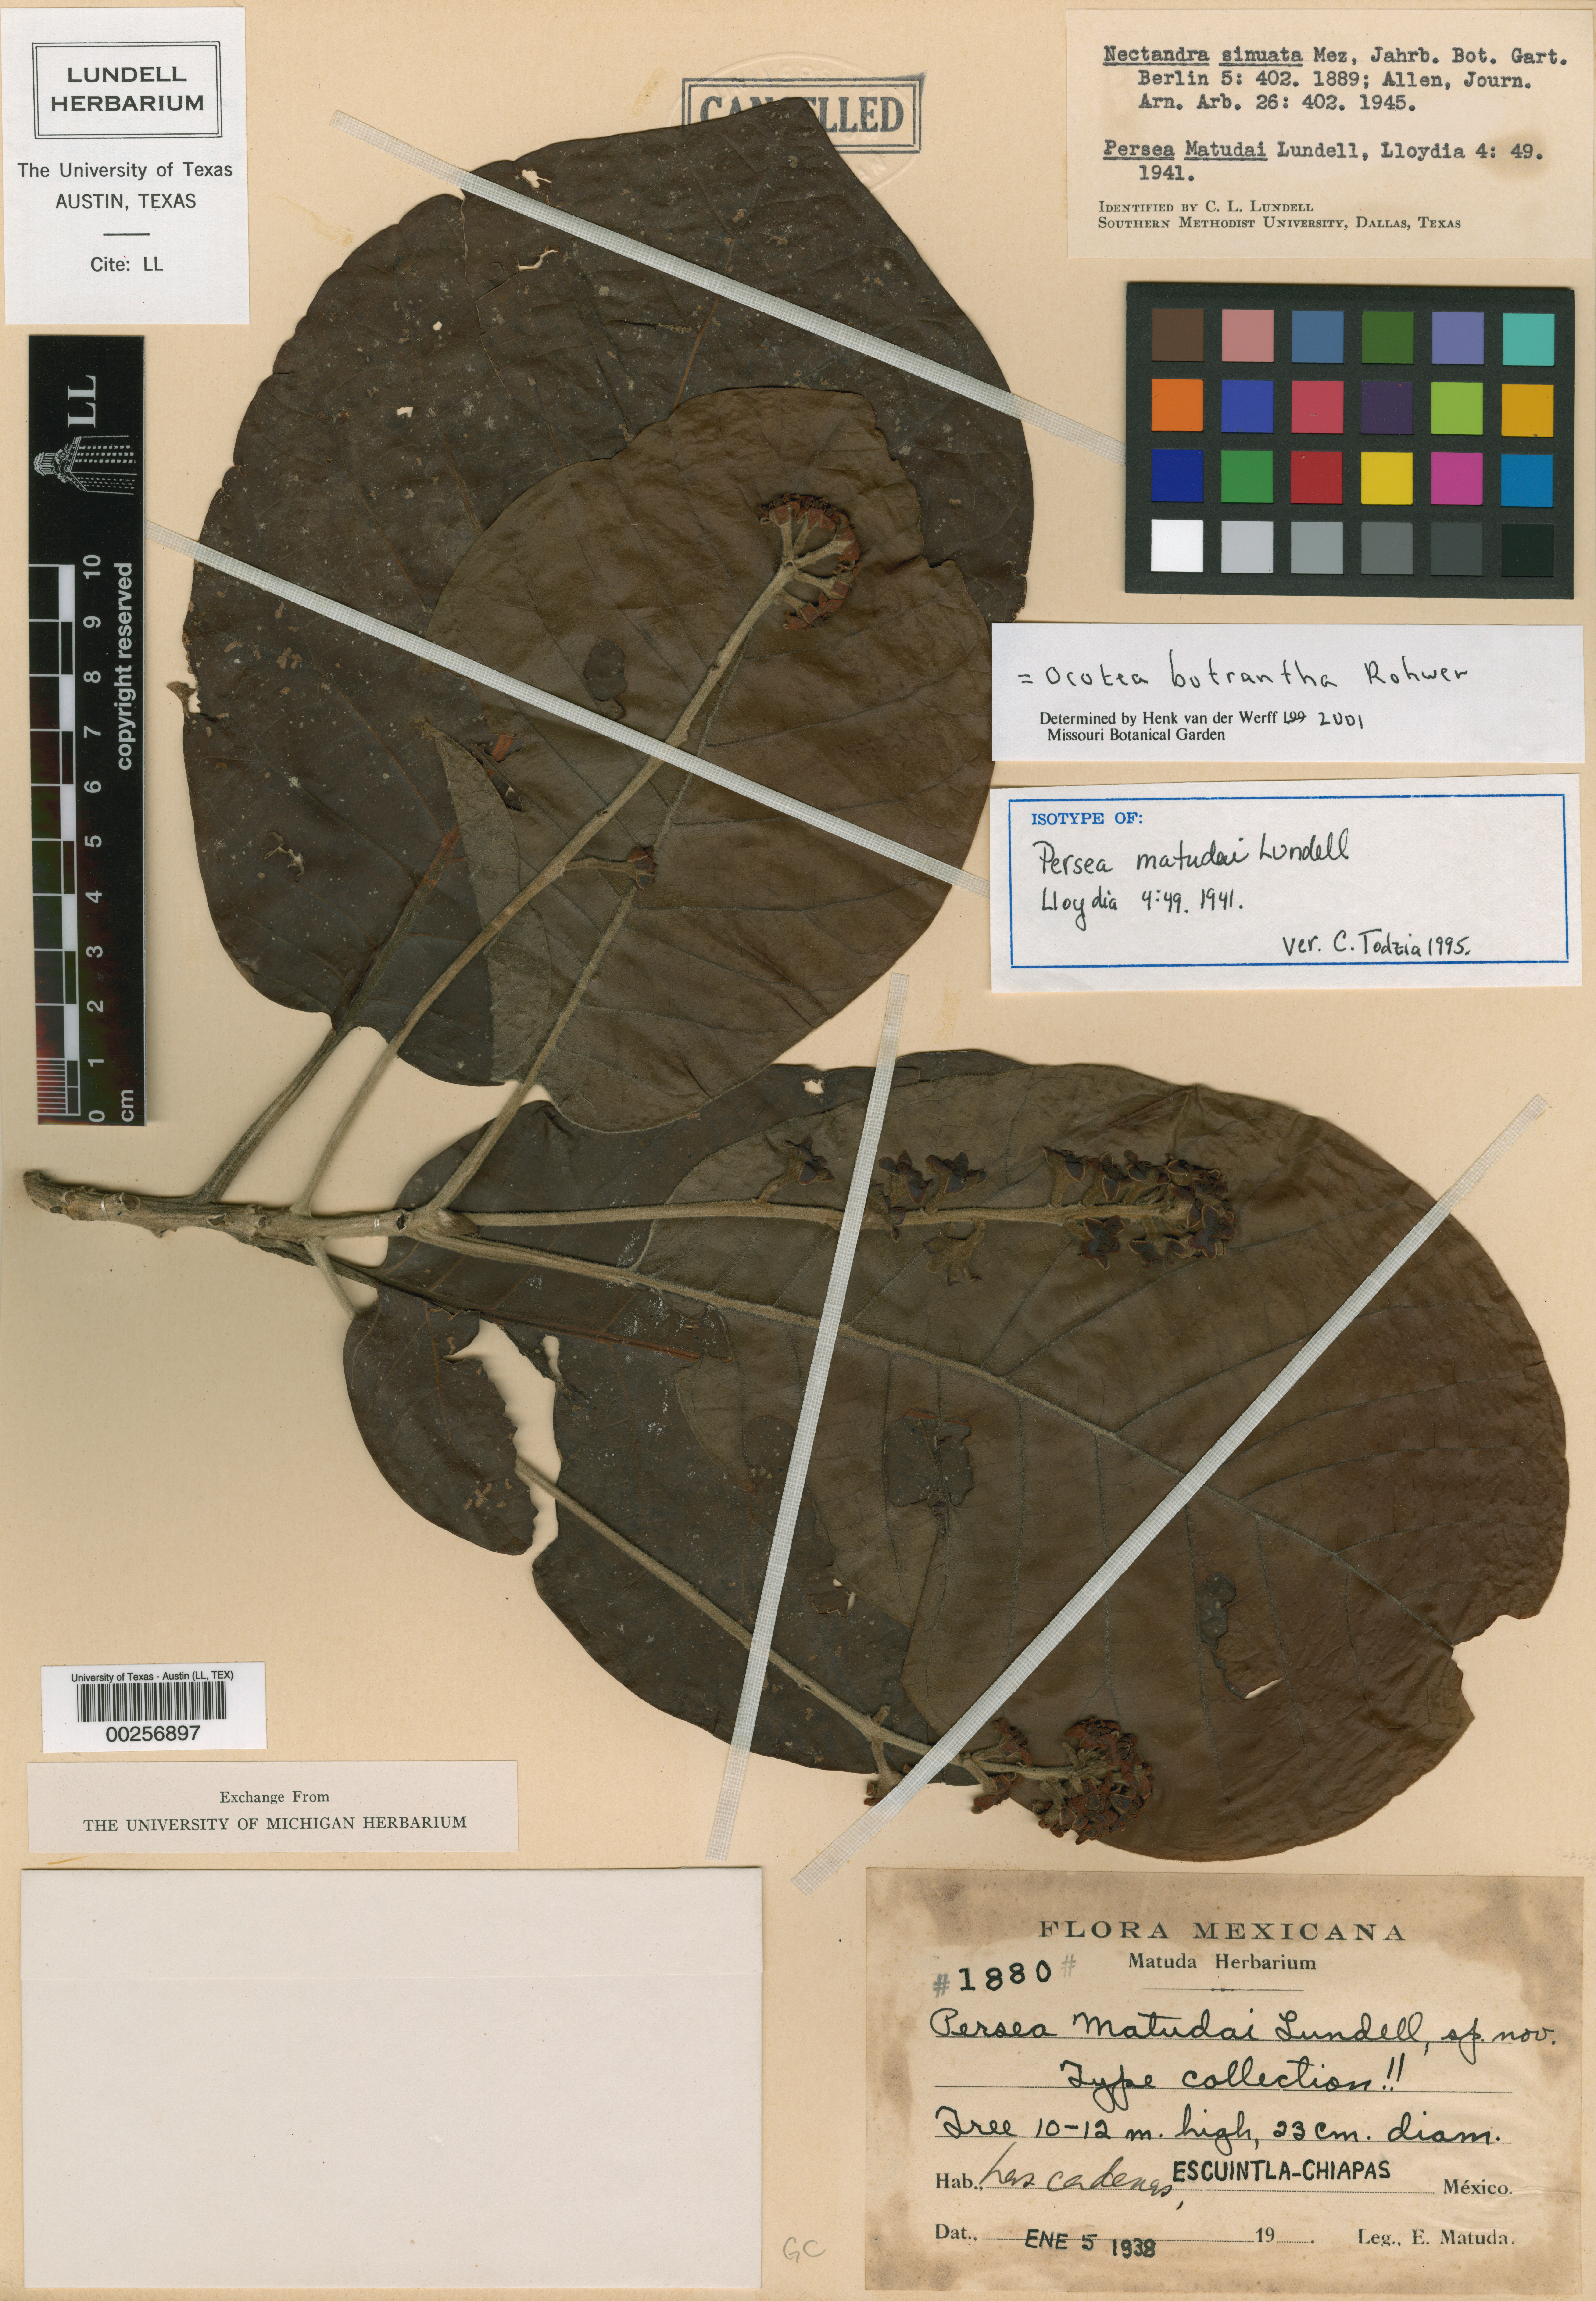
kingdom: Plantae
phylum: Tracheophyta
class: Magnoliopsida
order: Laurales
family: Lauraceae
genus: Ocotea
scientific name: Ocotea botrantha
